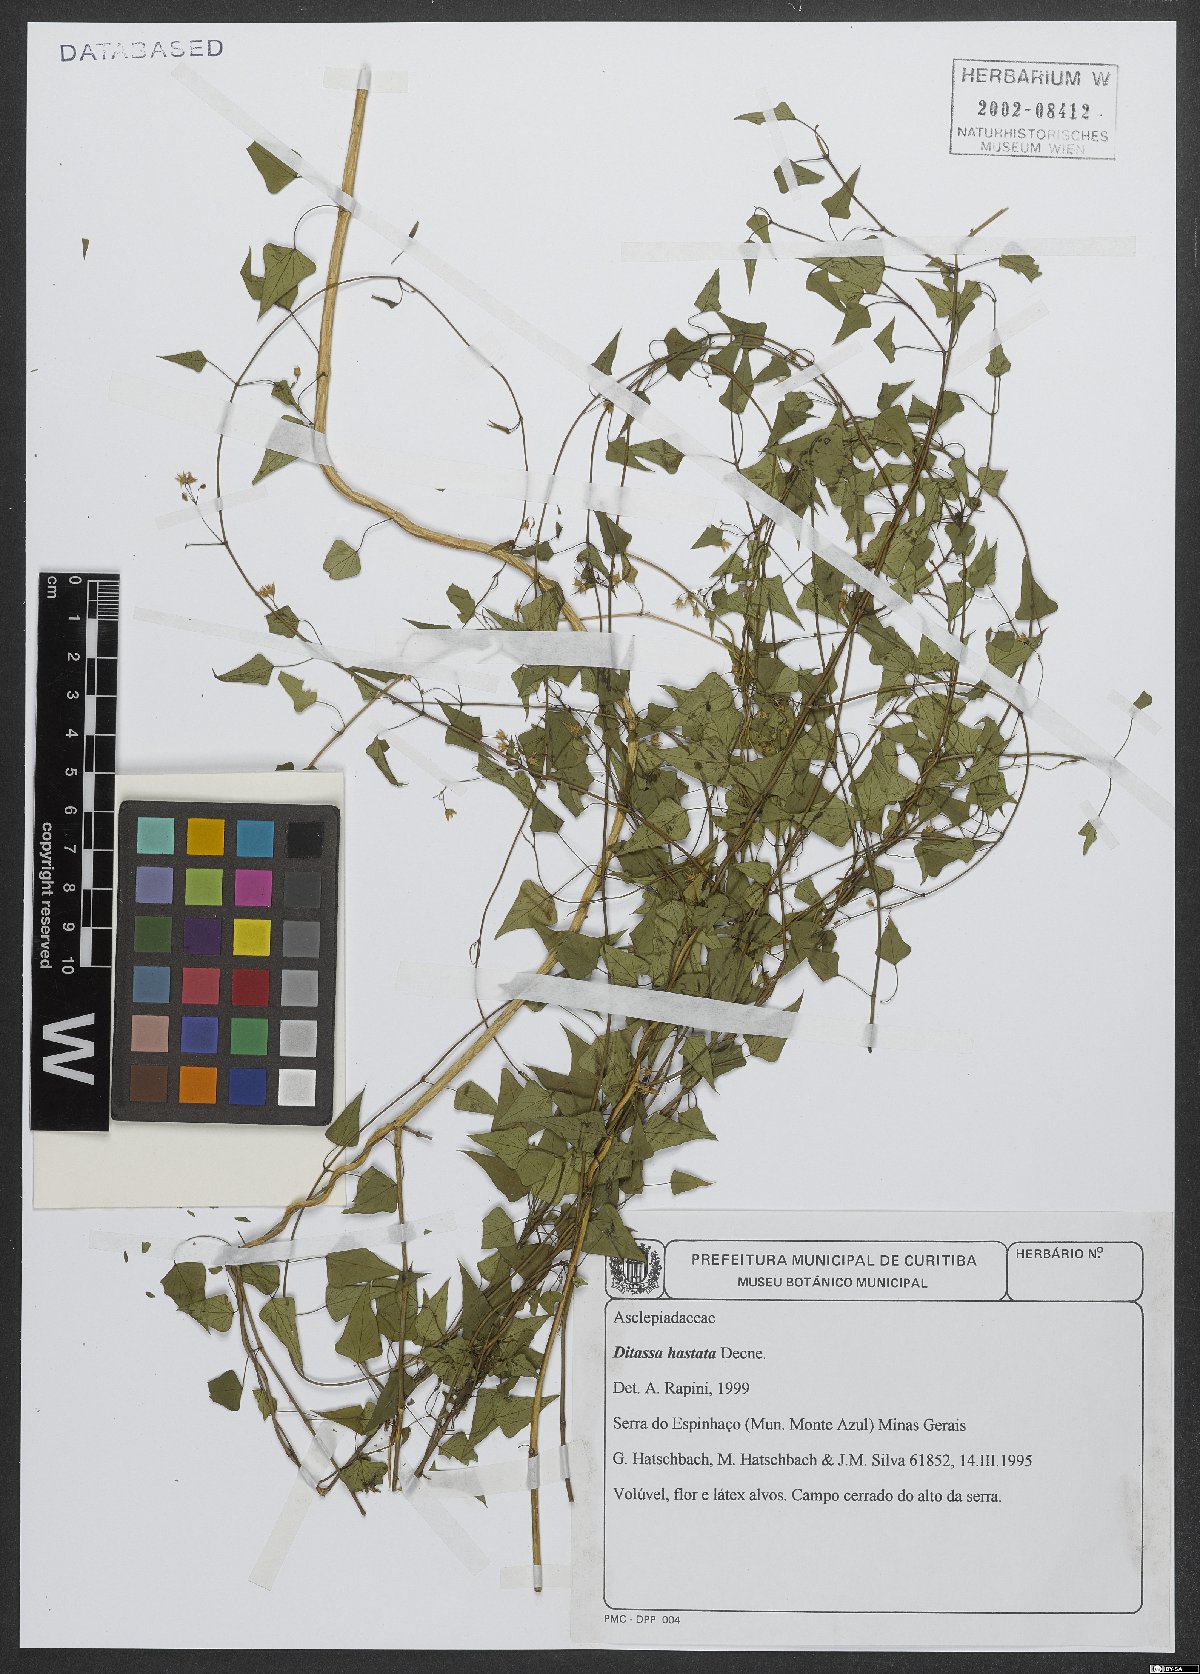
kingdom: Plantae
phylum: Tracheophyta
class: Magnoliopsida
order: Gentianales
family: Apocynaceae
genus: Ditassa
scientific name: Ditassa hastata
